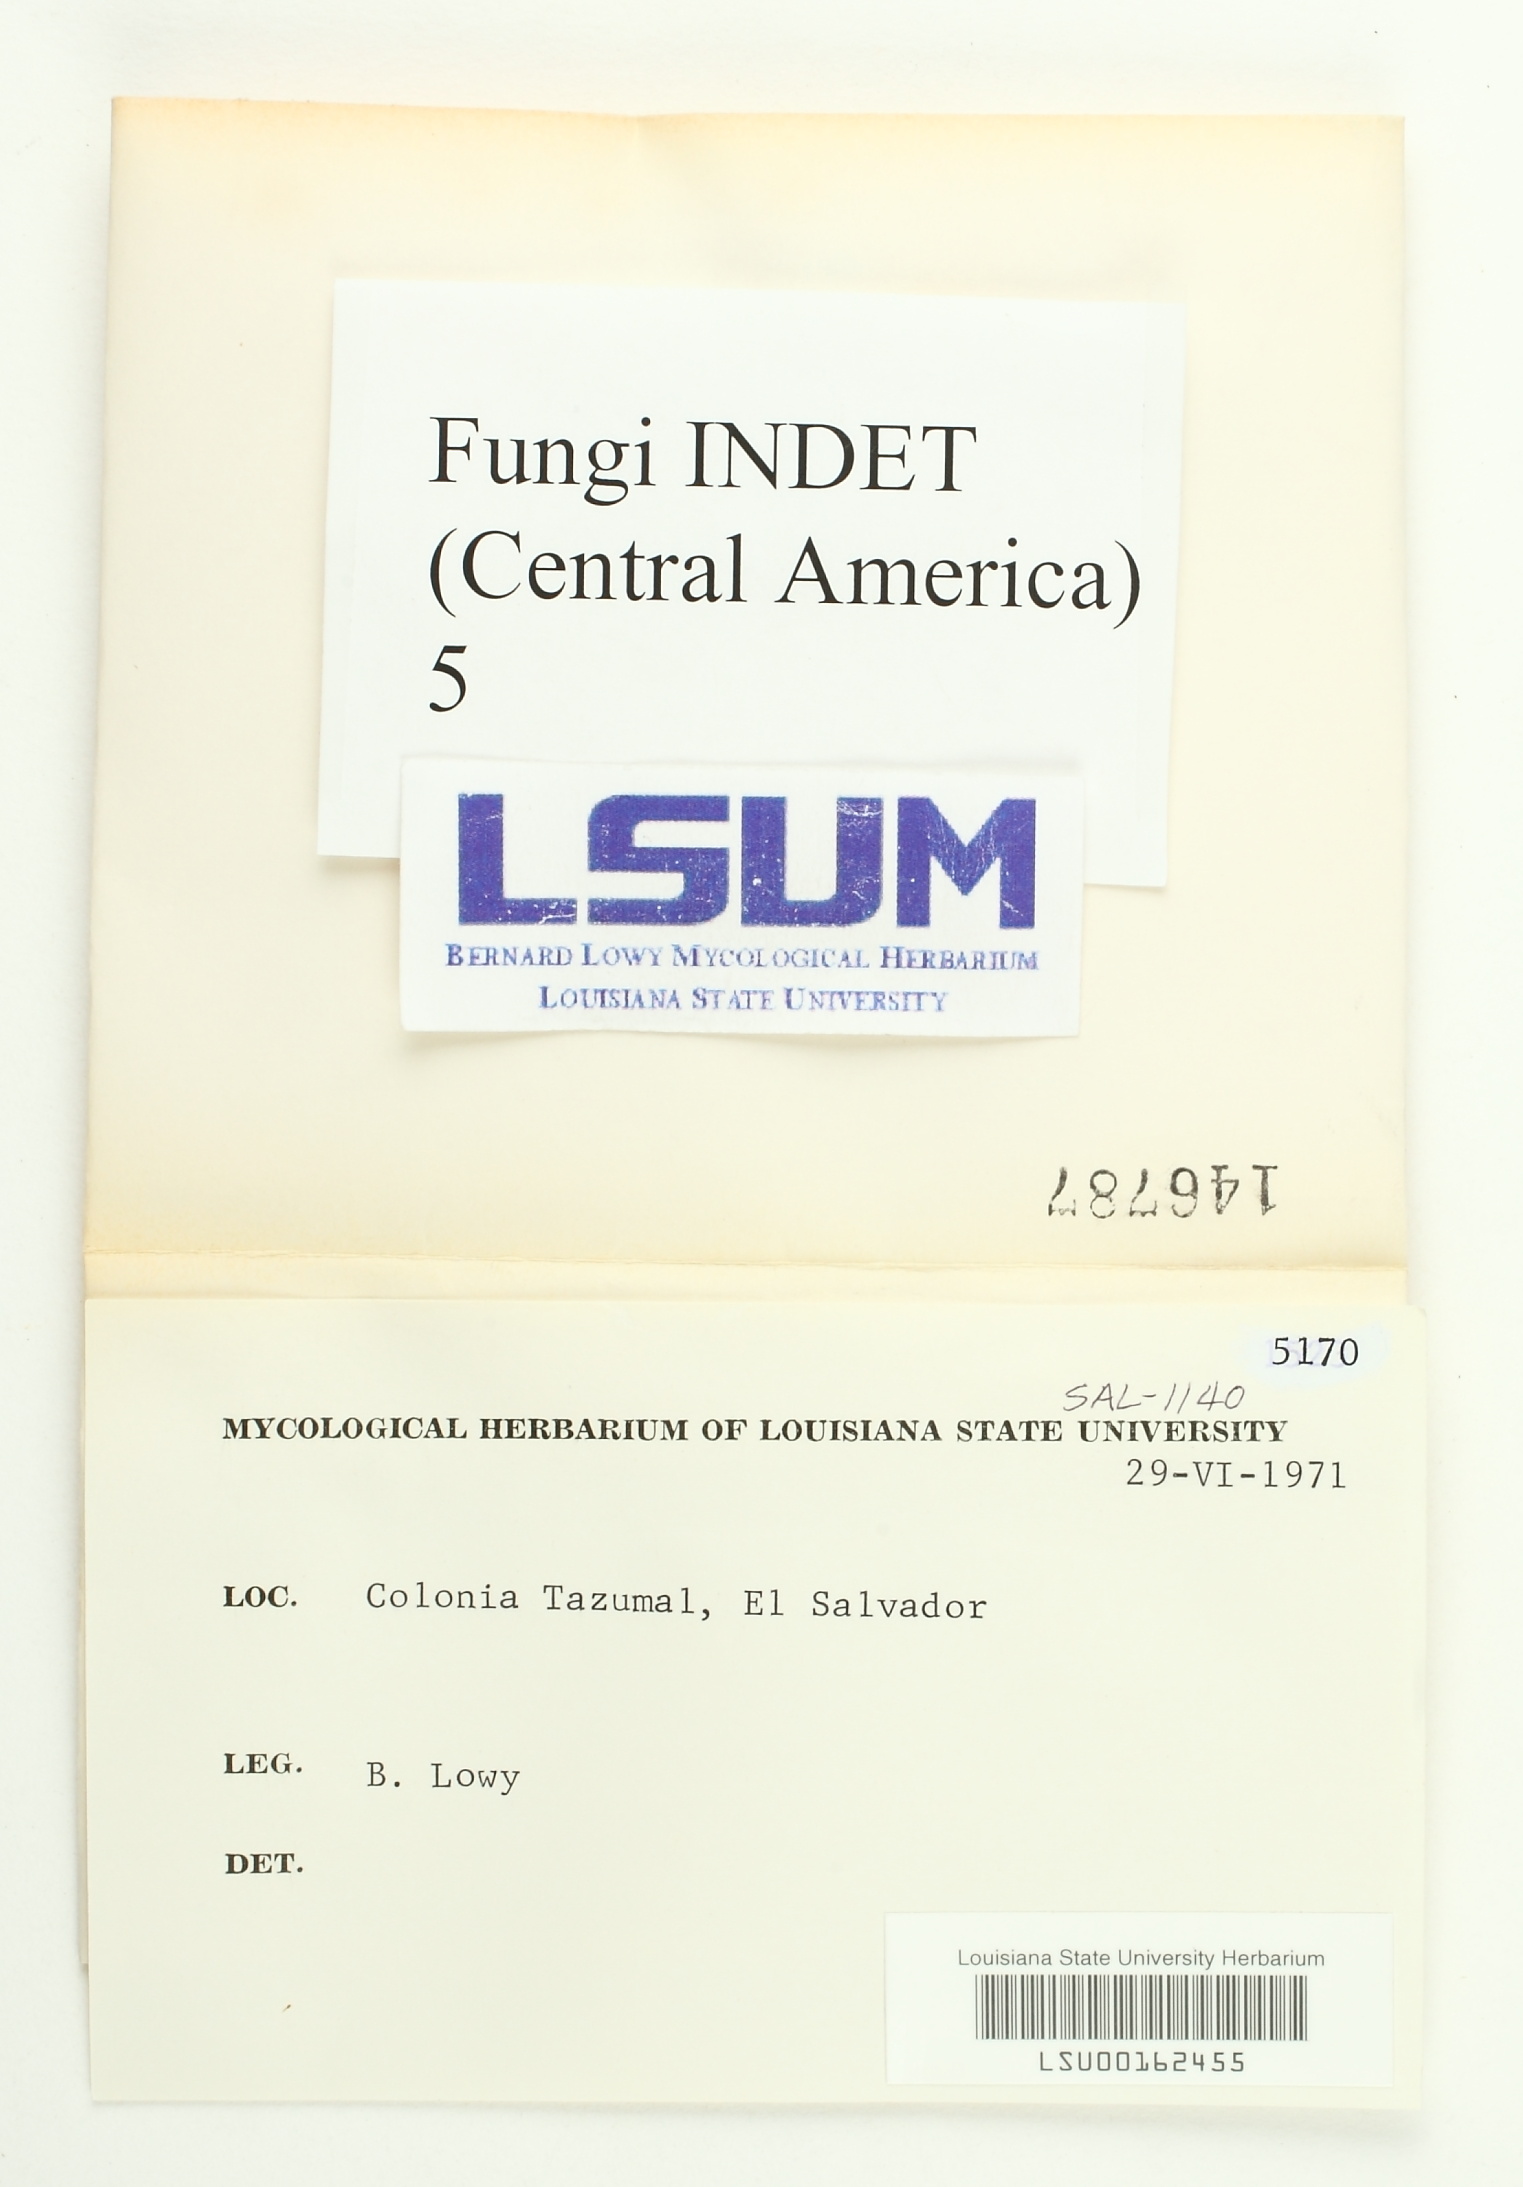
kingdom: Fungi
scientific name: Fungi
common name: Fungi
